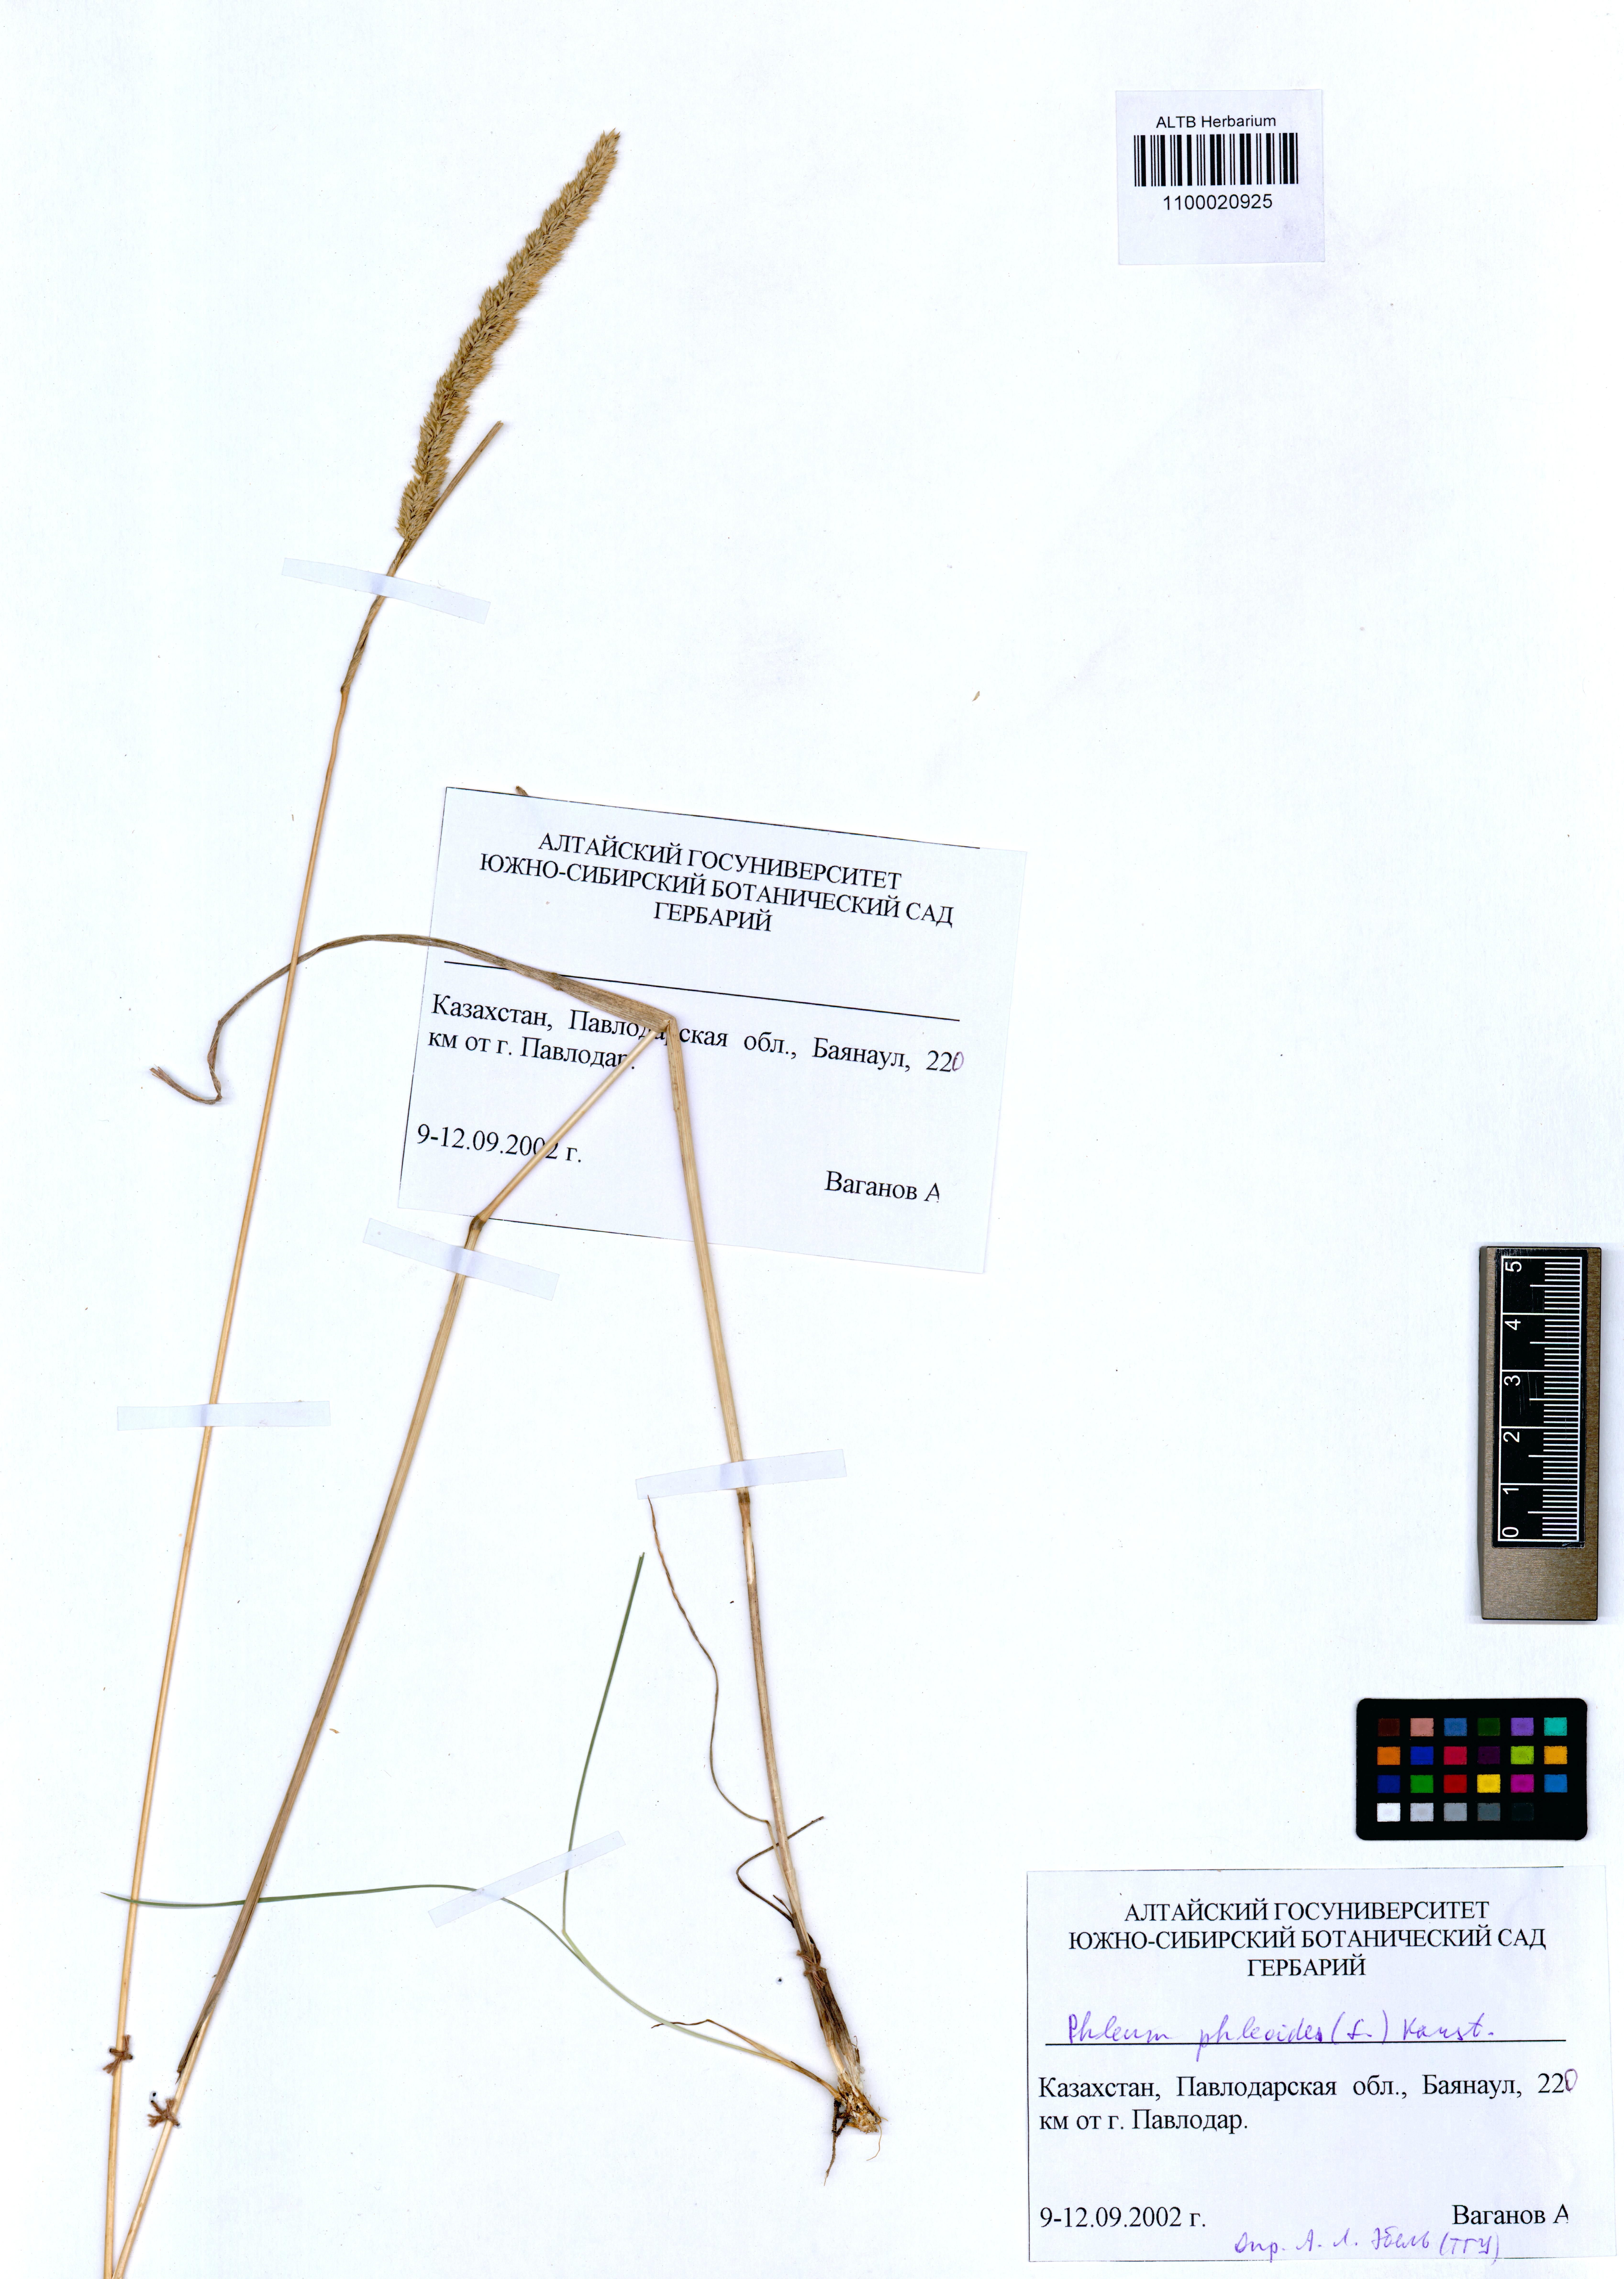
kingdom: Plantae
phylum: Tracheophyta
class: Liliopsida
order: Poales
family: Poaceae
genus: Phleum
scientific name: Phleum phleoides
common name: Purple-stem cat's-tail
